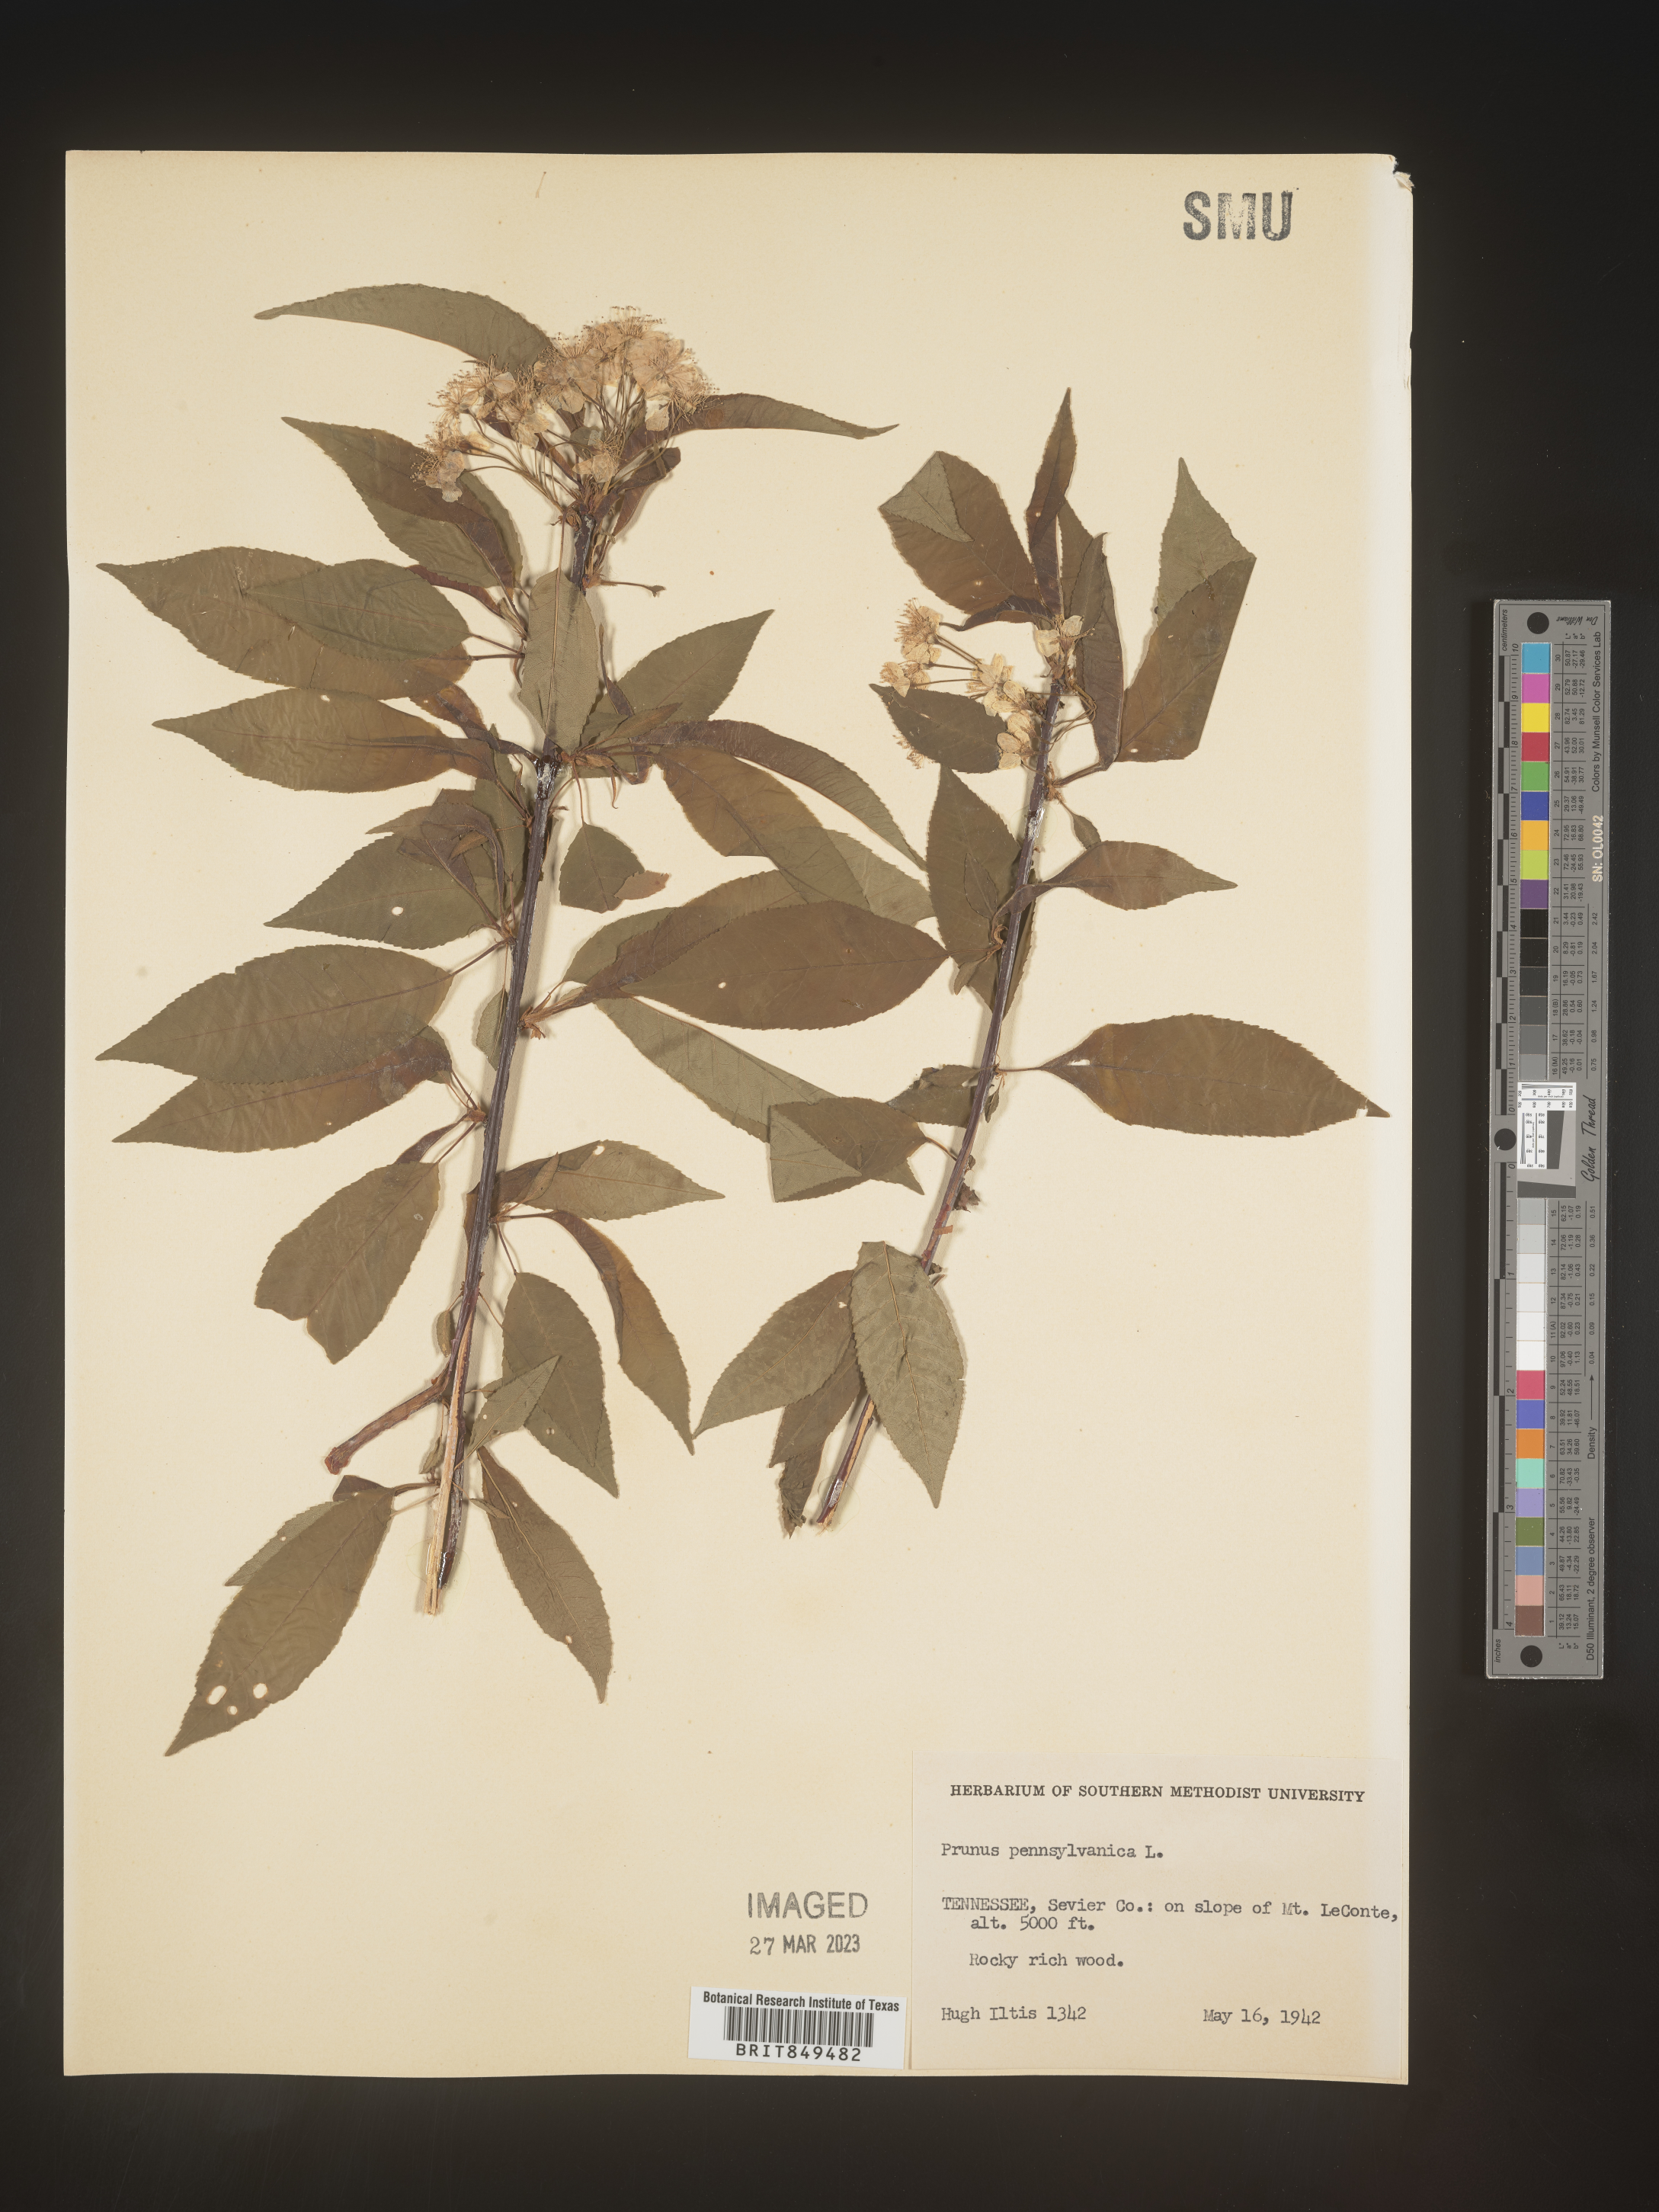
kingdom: Plantae
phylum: Tracheophyta
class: Magnoliopsida
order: Rosales
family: Rosaceae
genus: Prunus
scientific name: Prunus pensylvanica
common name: Pin cherry
